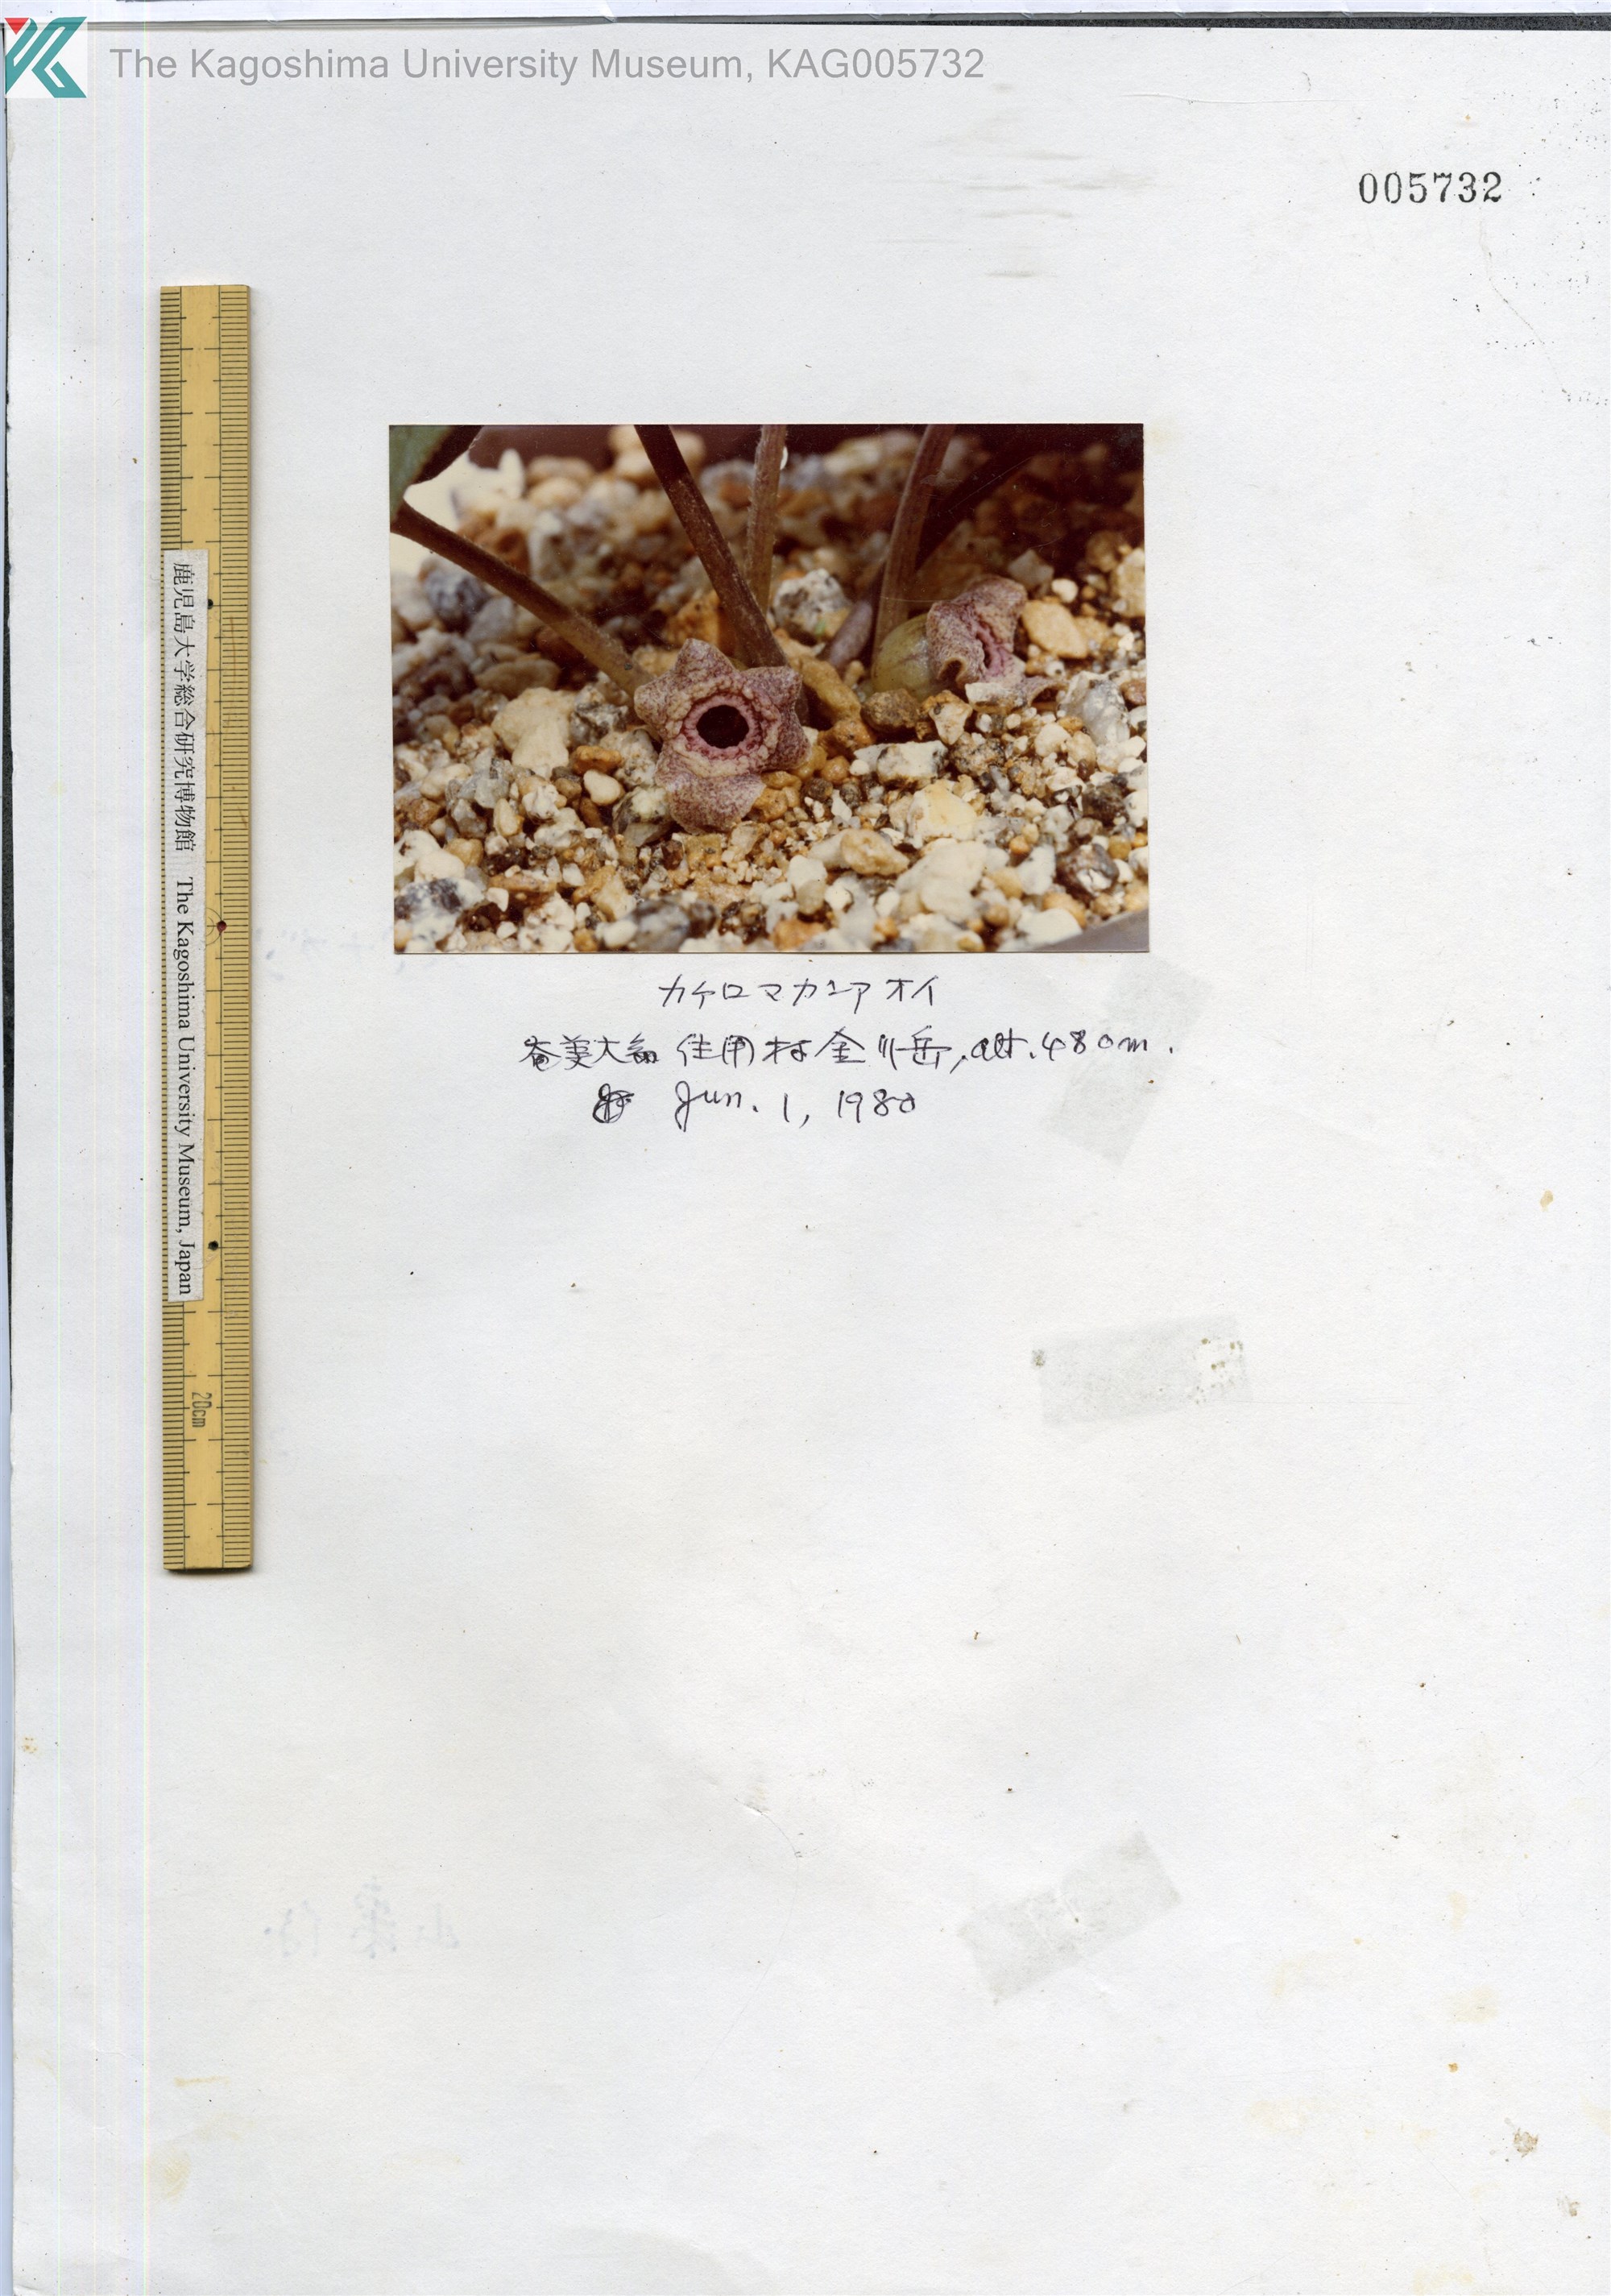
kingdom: Plantae
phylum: Tracheophyta
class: Magnoliopsida
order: Piperales
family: Aristolochiaceae
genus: Asarum
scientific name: Asarum trinacriforme
